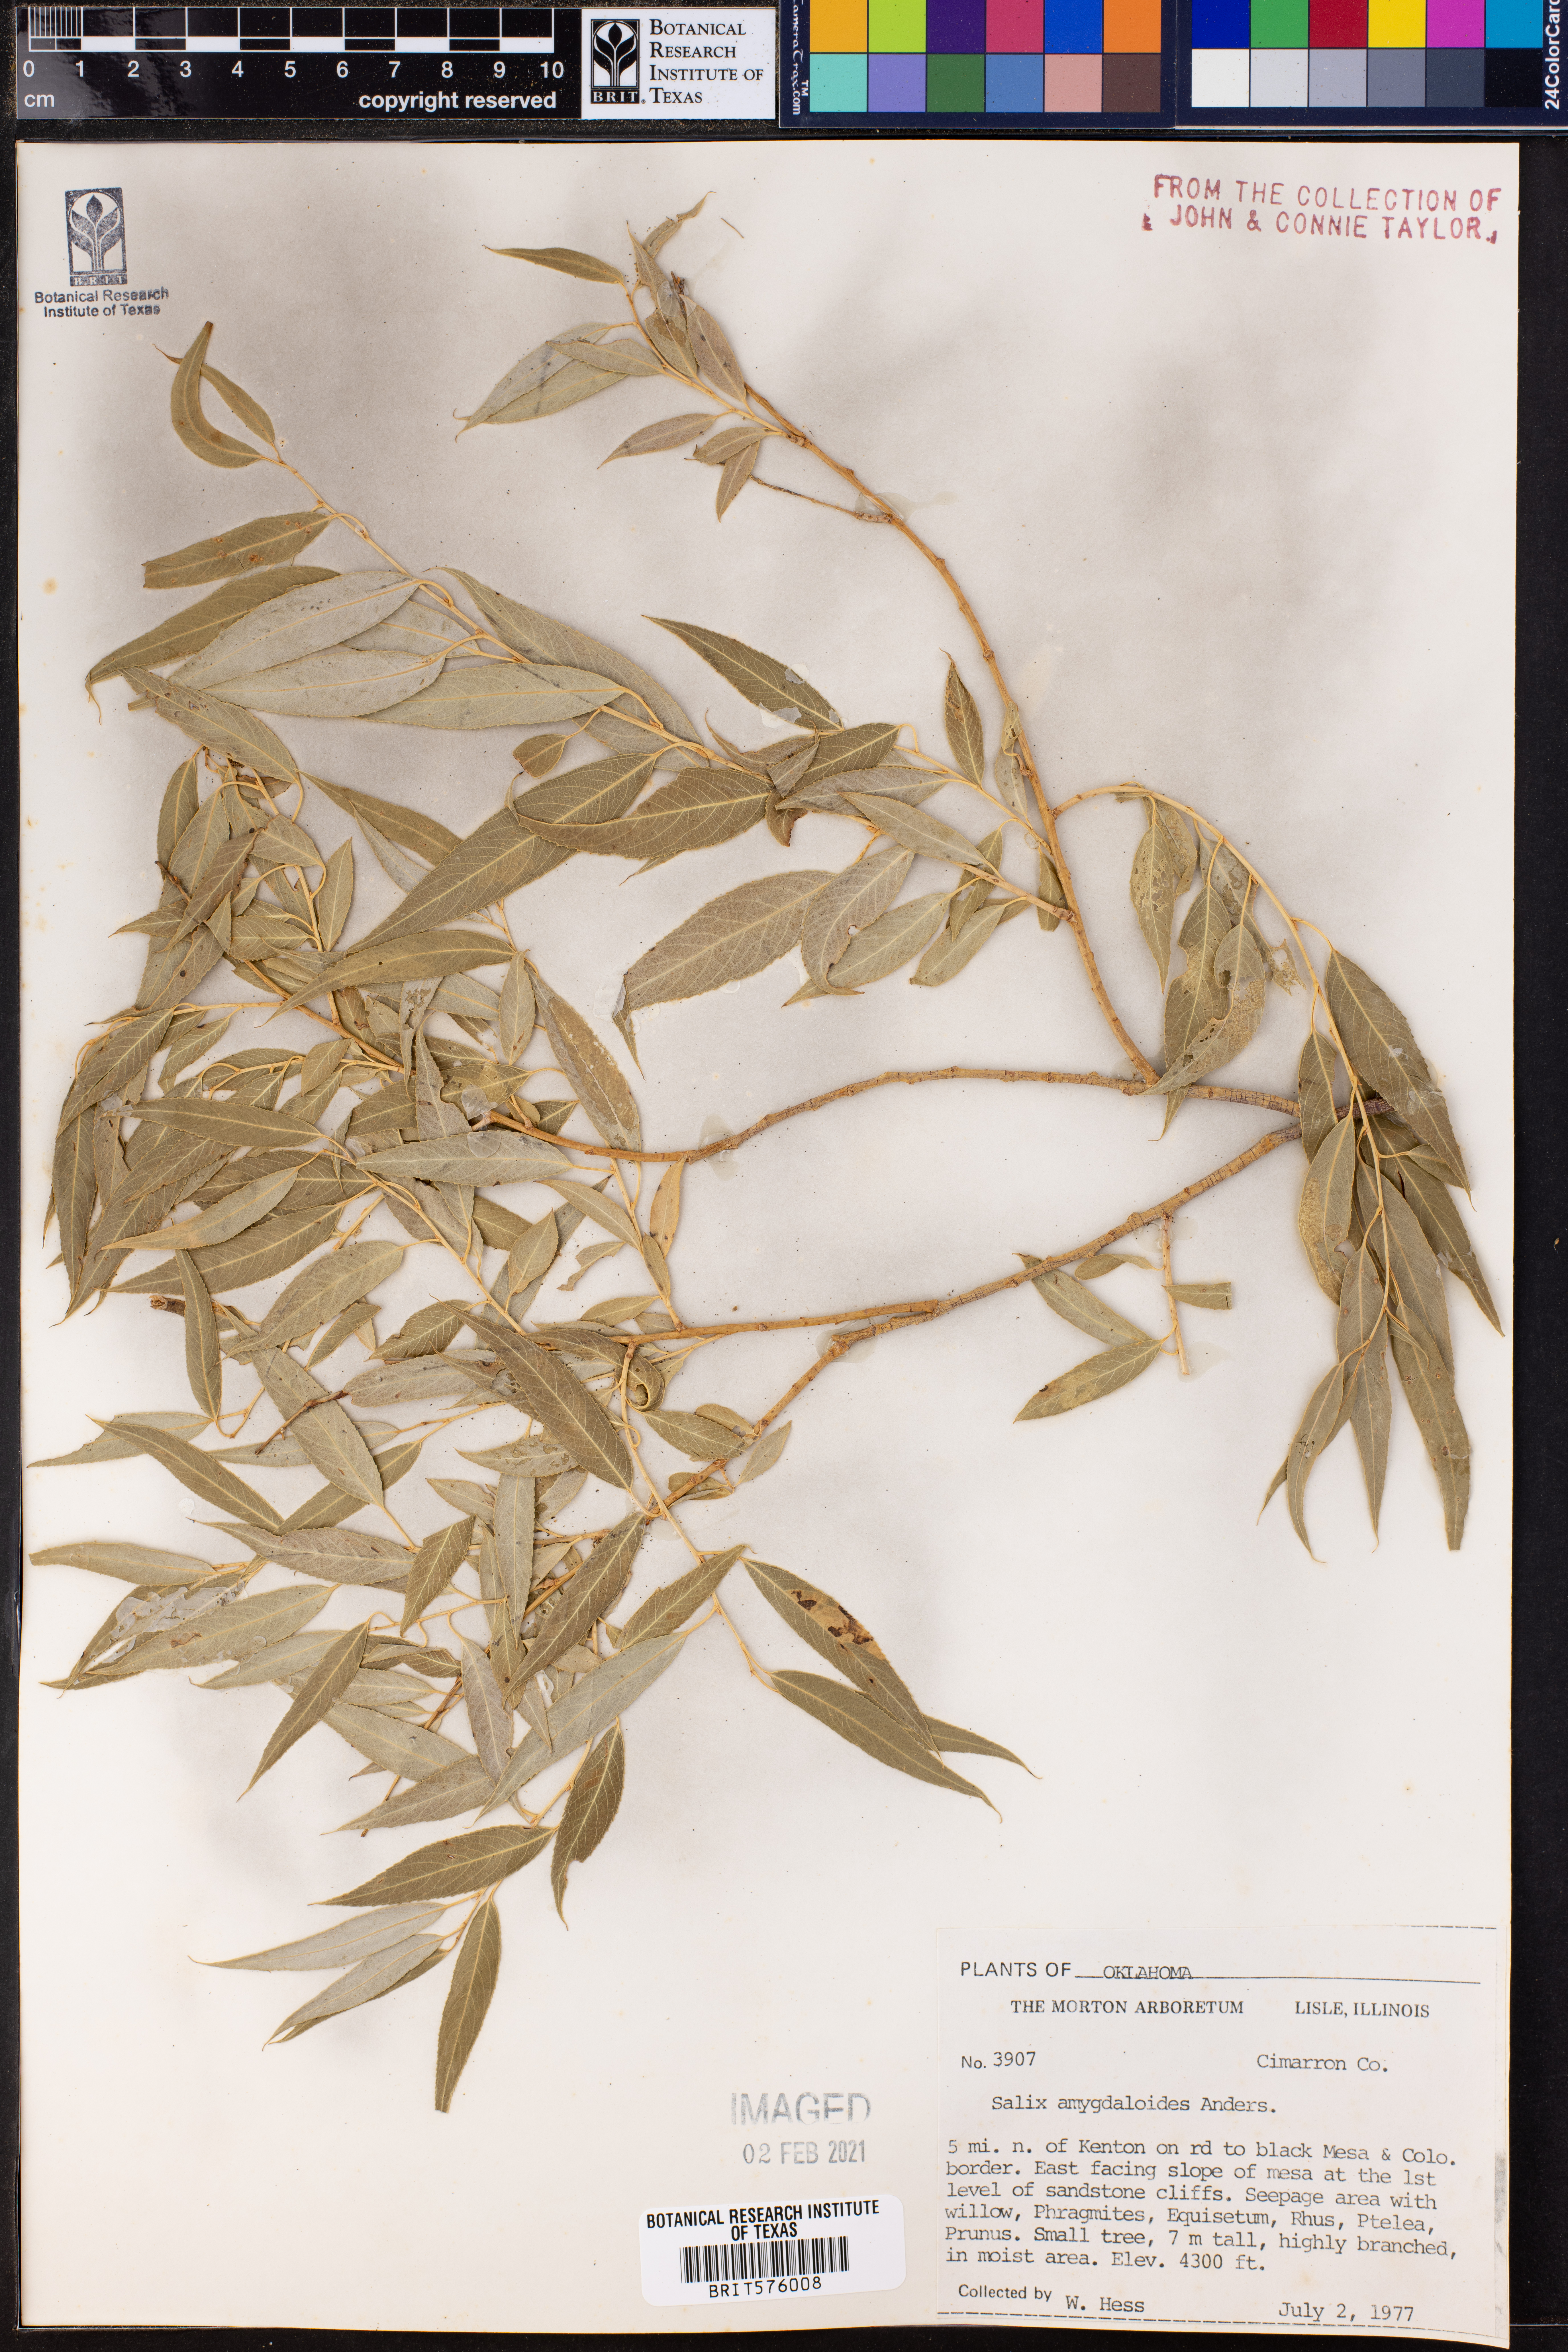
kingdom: Plantae
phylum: Tracheophyta
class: Magnoliopsida
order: Malpighiales
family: Salicaceae
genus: Salix
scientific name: Salix amygdaloides
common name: Peach leaf willow
